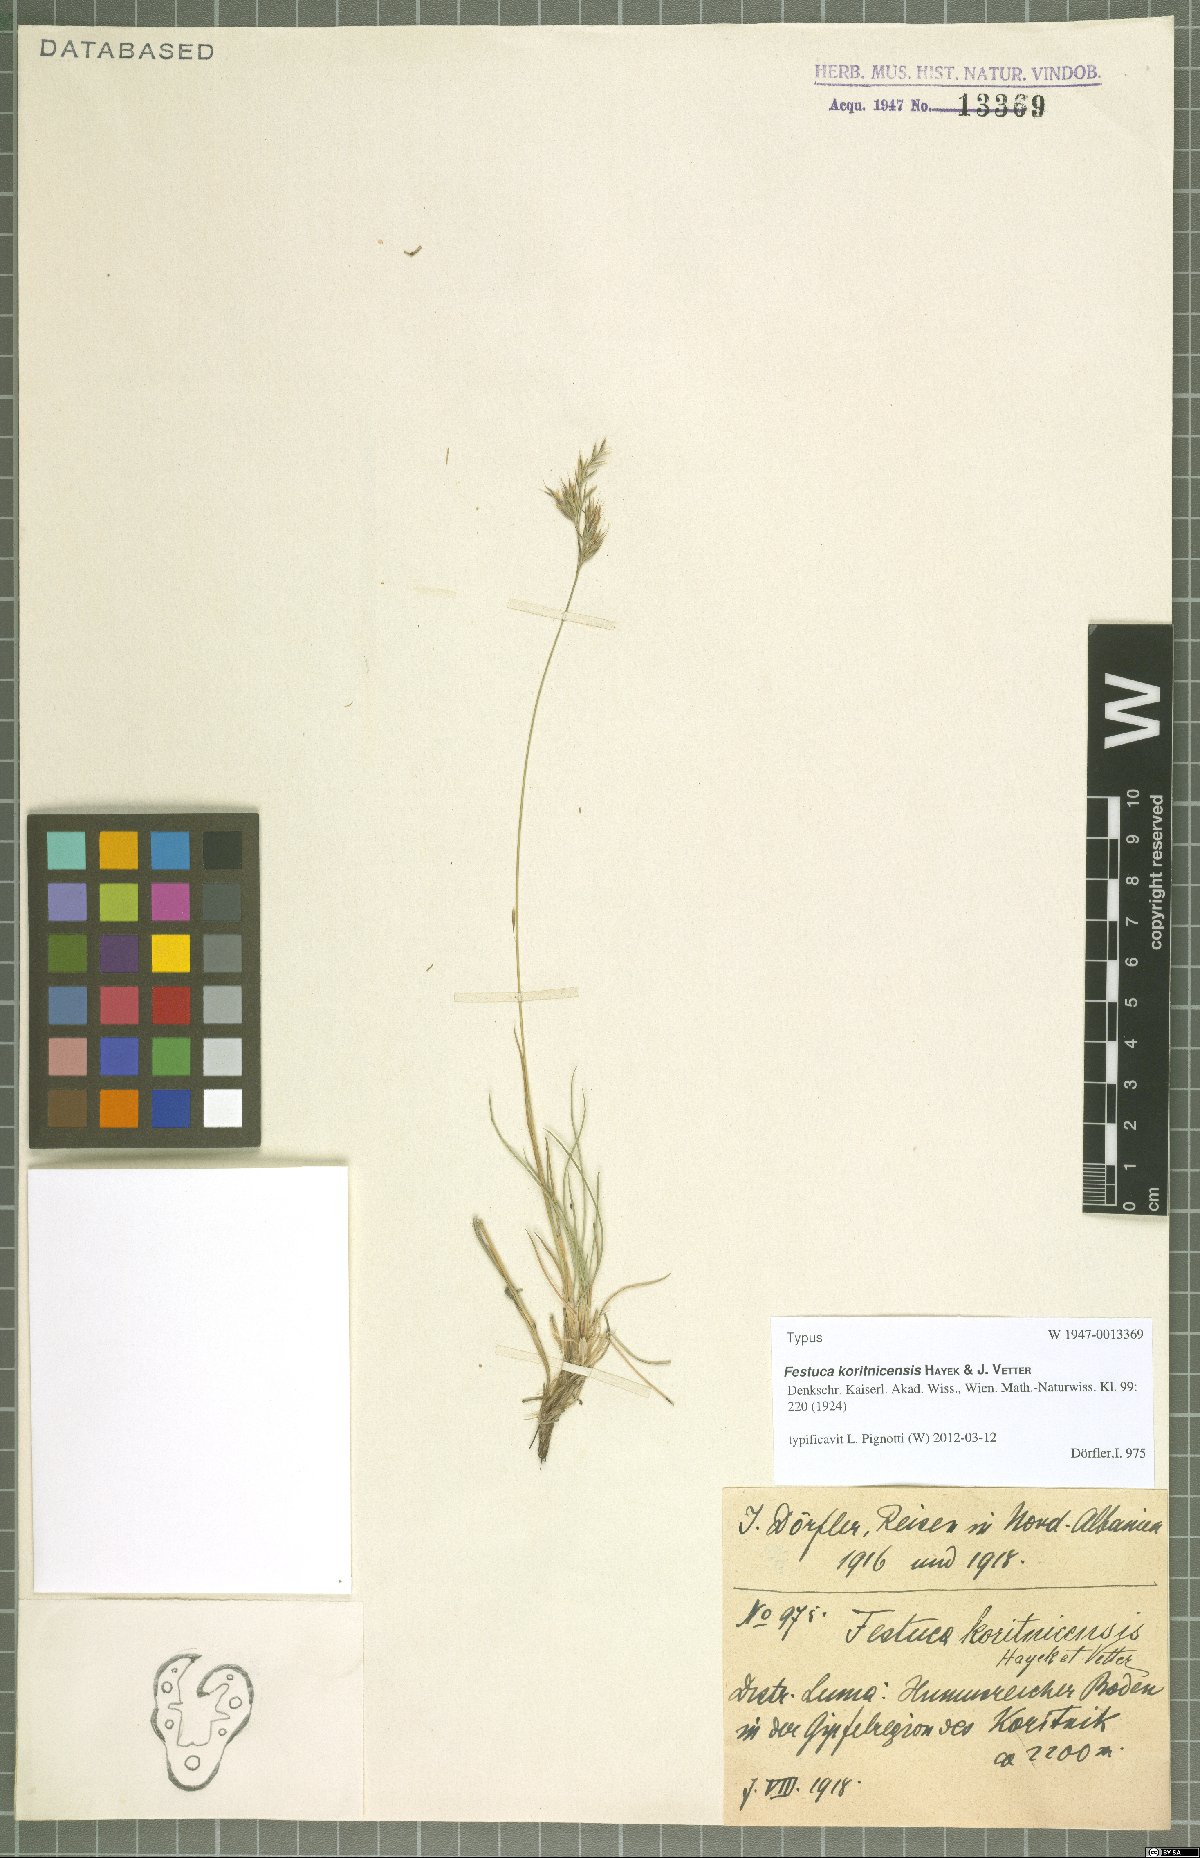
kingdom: Plantae
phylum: Tracheophyta
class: Liliopsida
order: Poales
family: Poaceae
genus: Festuca
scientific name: Festuca koritnicensis
